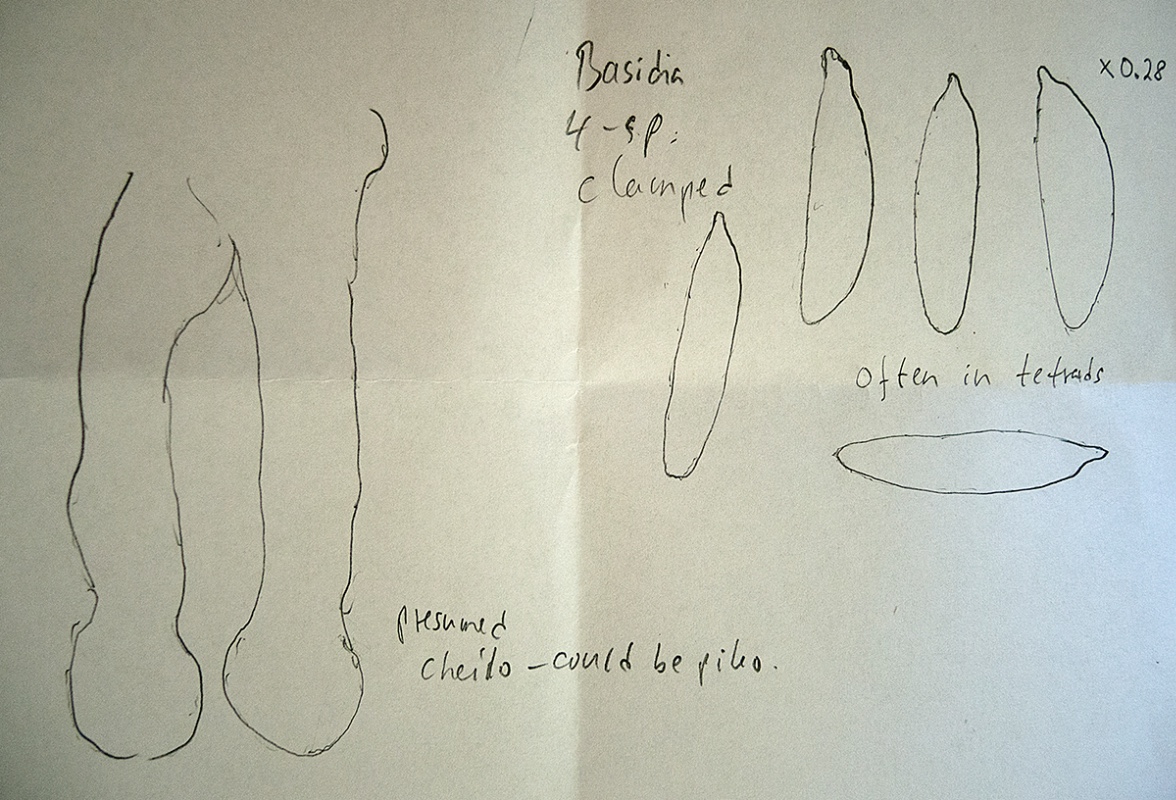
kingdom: Fungi
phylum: Basidiomycota
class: Agaricomycetes
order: Agaricales
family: Mycenaceae
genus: Hemimycena
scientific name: Hemimycena
